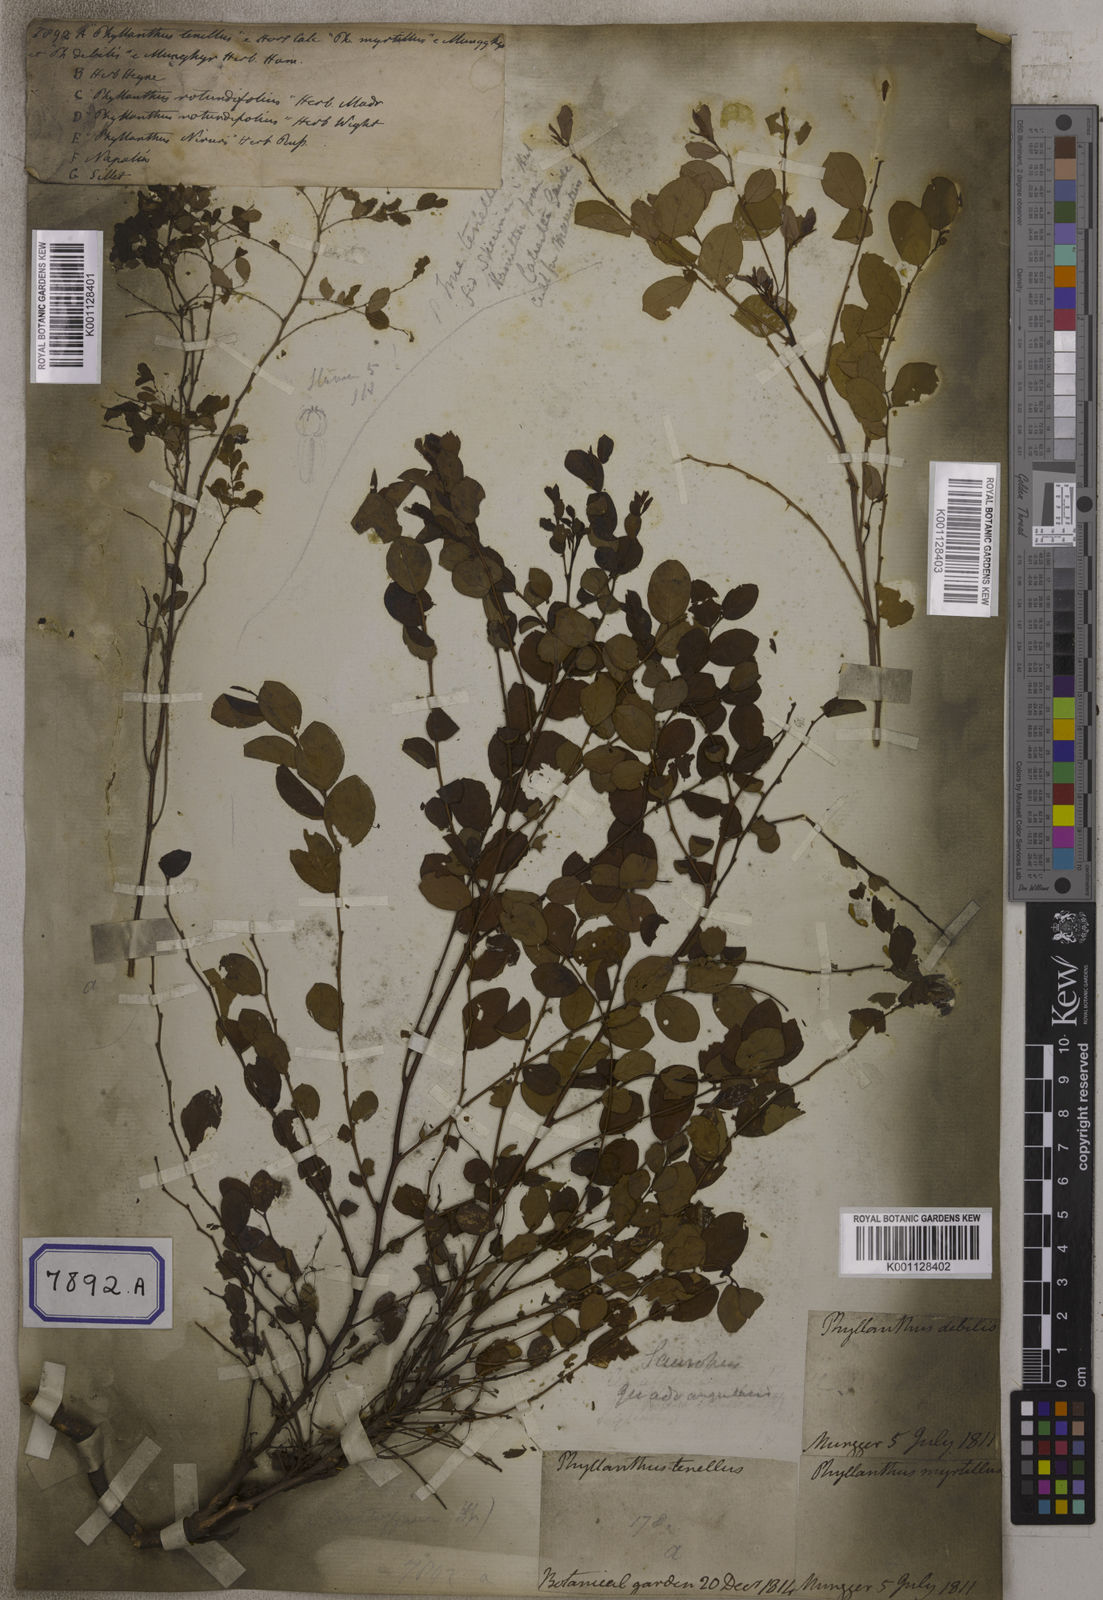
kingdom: Plantae
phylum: Tracheophyta
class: Magnoliopsida
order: Malpighiales
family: Euphorbiaceae
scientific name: Euphorbiaceae
